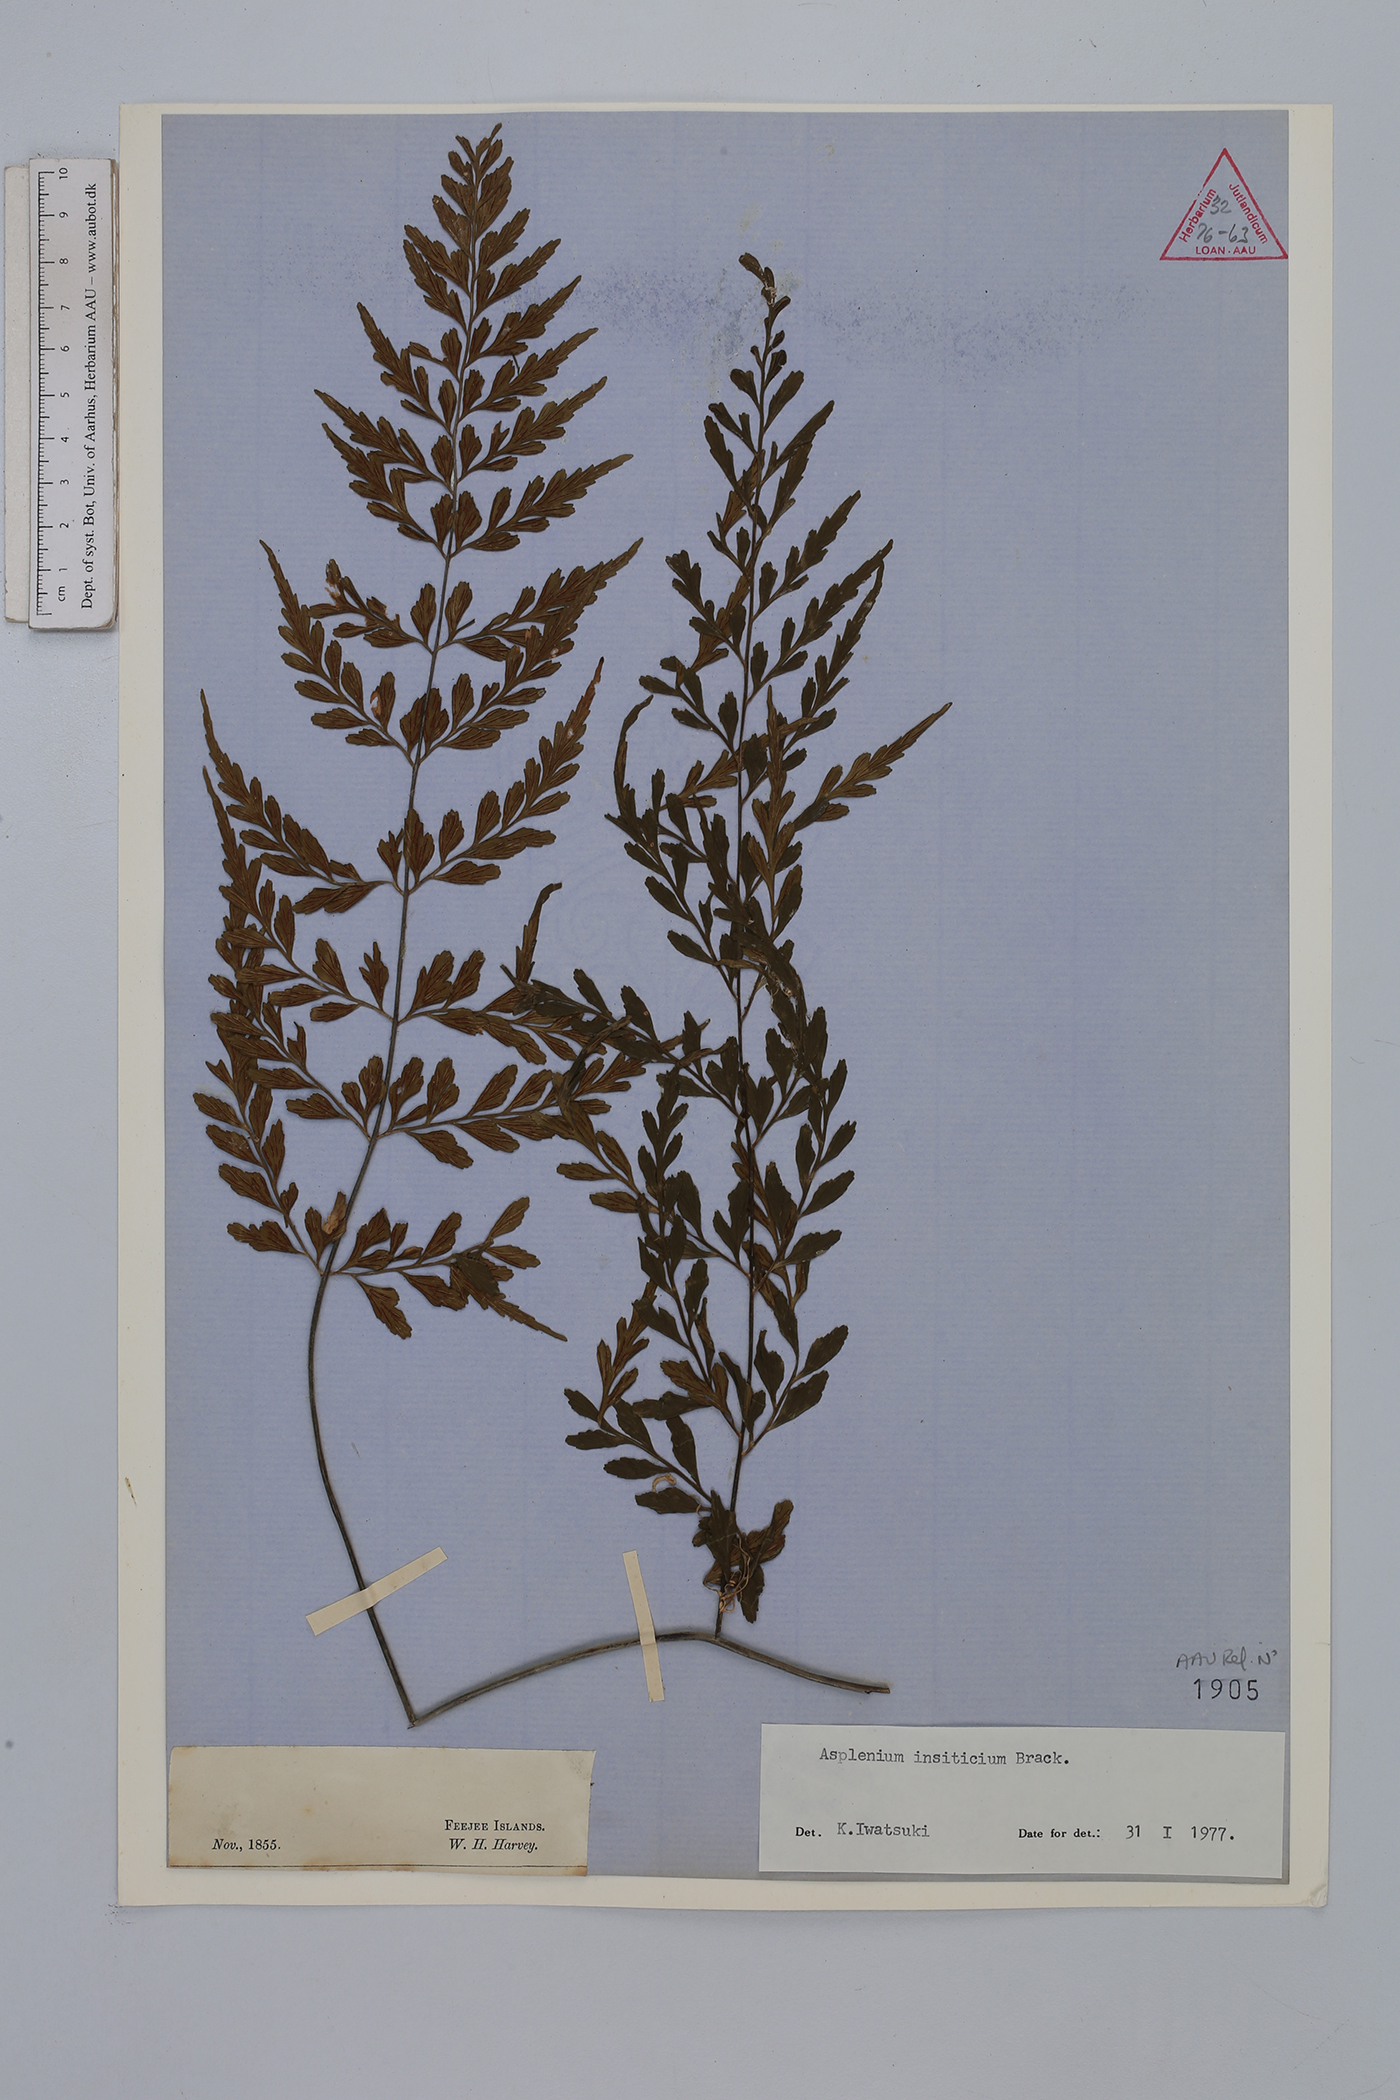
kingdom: Plantae
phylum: Tracheophyta
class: Polypodiopsida
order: Polypodiales
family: Aspleniaceae
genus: Asplenium
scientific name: Asplenium insiticium
